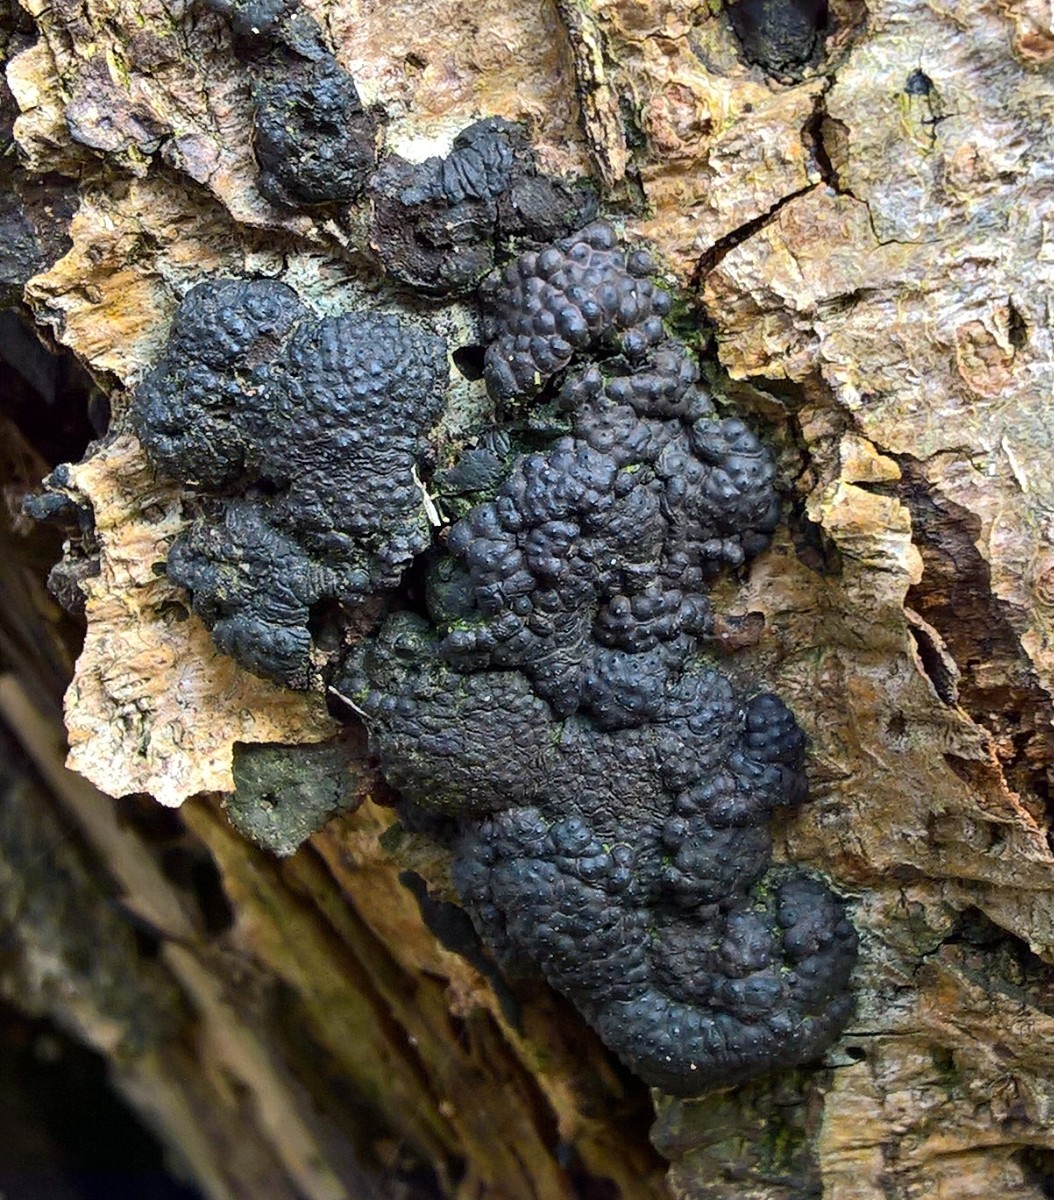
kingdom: Fungi
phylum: Ascomycota
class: Sordariomycetes
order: Xylariales
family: Hypoxylaceae
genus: Jackrogersella
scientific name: Jackrogersella multiformis
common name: foranderlig kulbær
